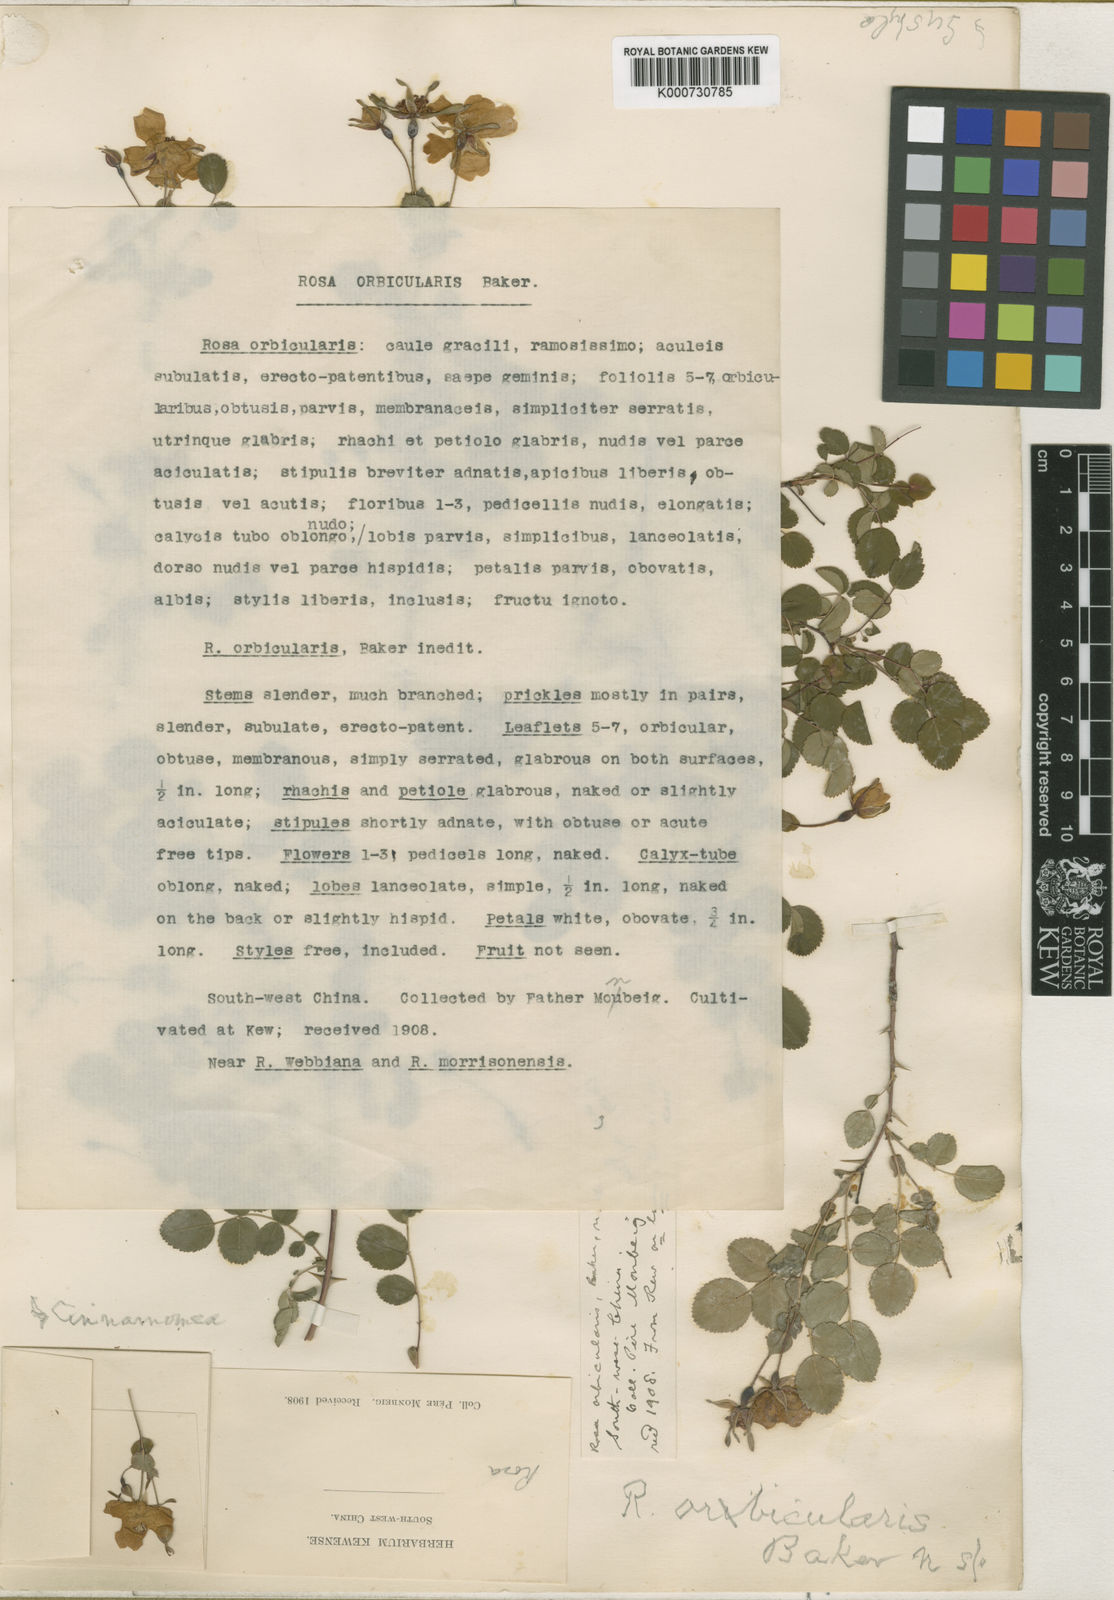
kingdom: Plantae
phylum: Tracheophyta
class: Magnoliopsida
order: Rosales
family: Rosaceae
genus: Rosa
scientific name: Rosa
